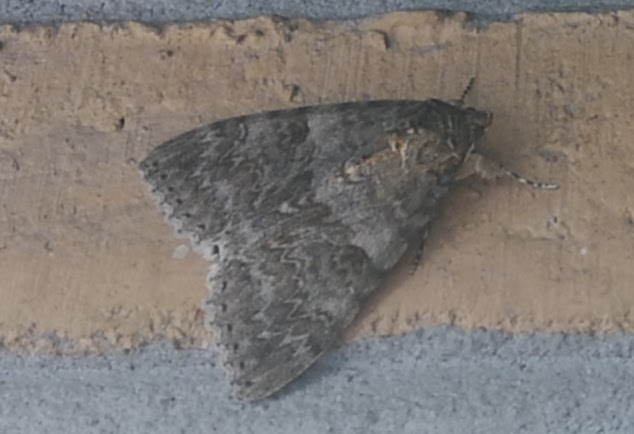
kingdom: Animalia
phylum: Arthropoda
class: Insecta
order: Lepidoptera
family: Erebidae
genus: Catocala
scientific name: Catocala nupta
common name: Rødt ordensbånd
